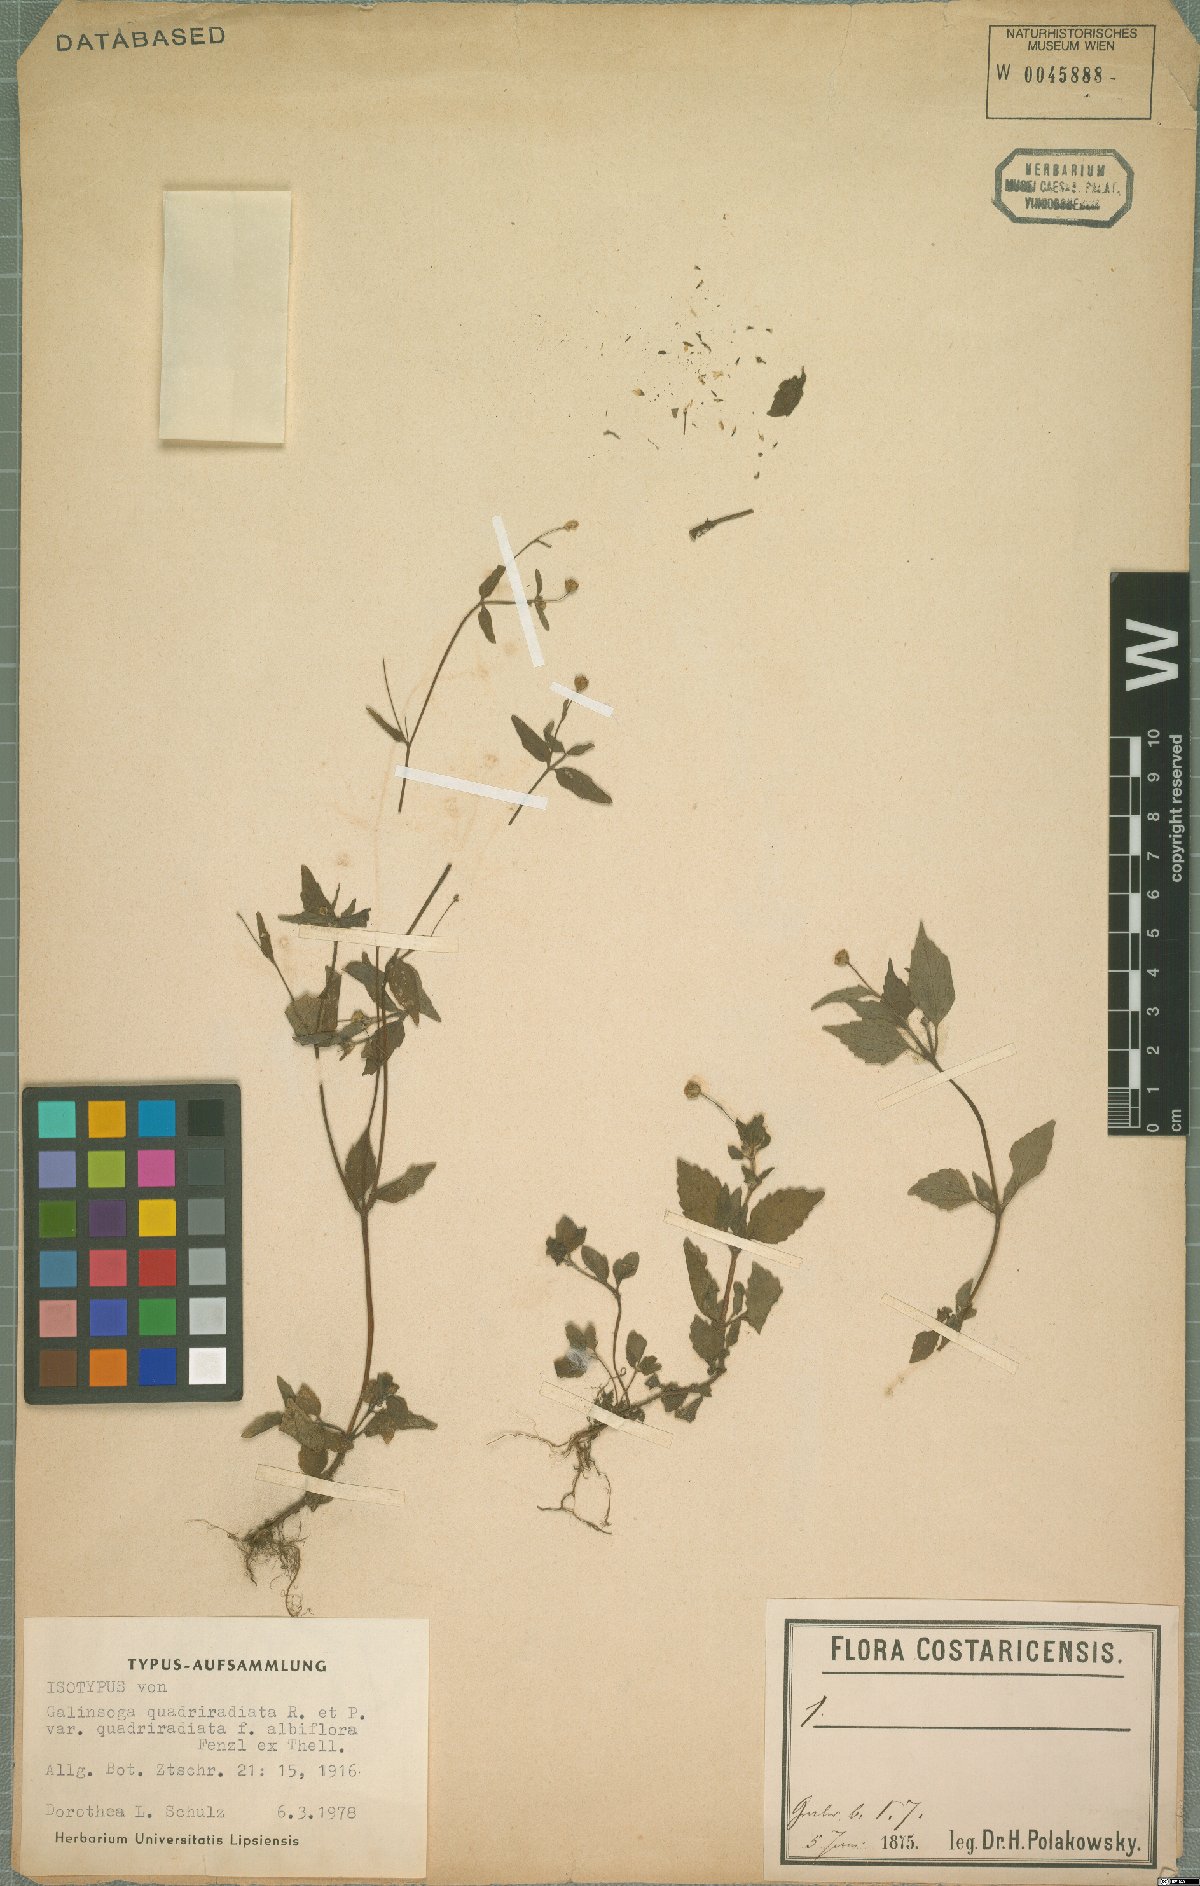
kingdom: Plantae
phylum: Tracheophyta
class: Magnoliopsida
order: Asterales
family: Asteraceae
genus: Galinsoga
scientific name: Galinsoga quadriradiata
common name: Shaggy soldier
